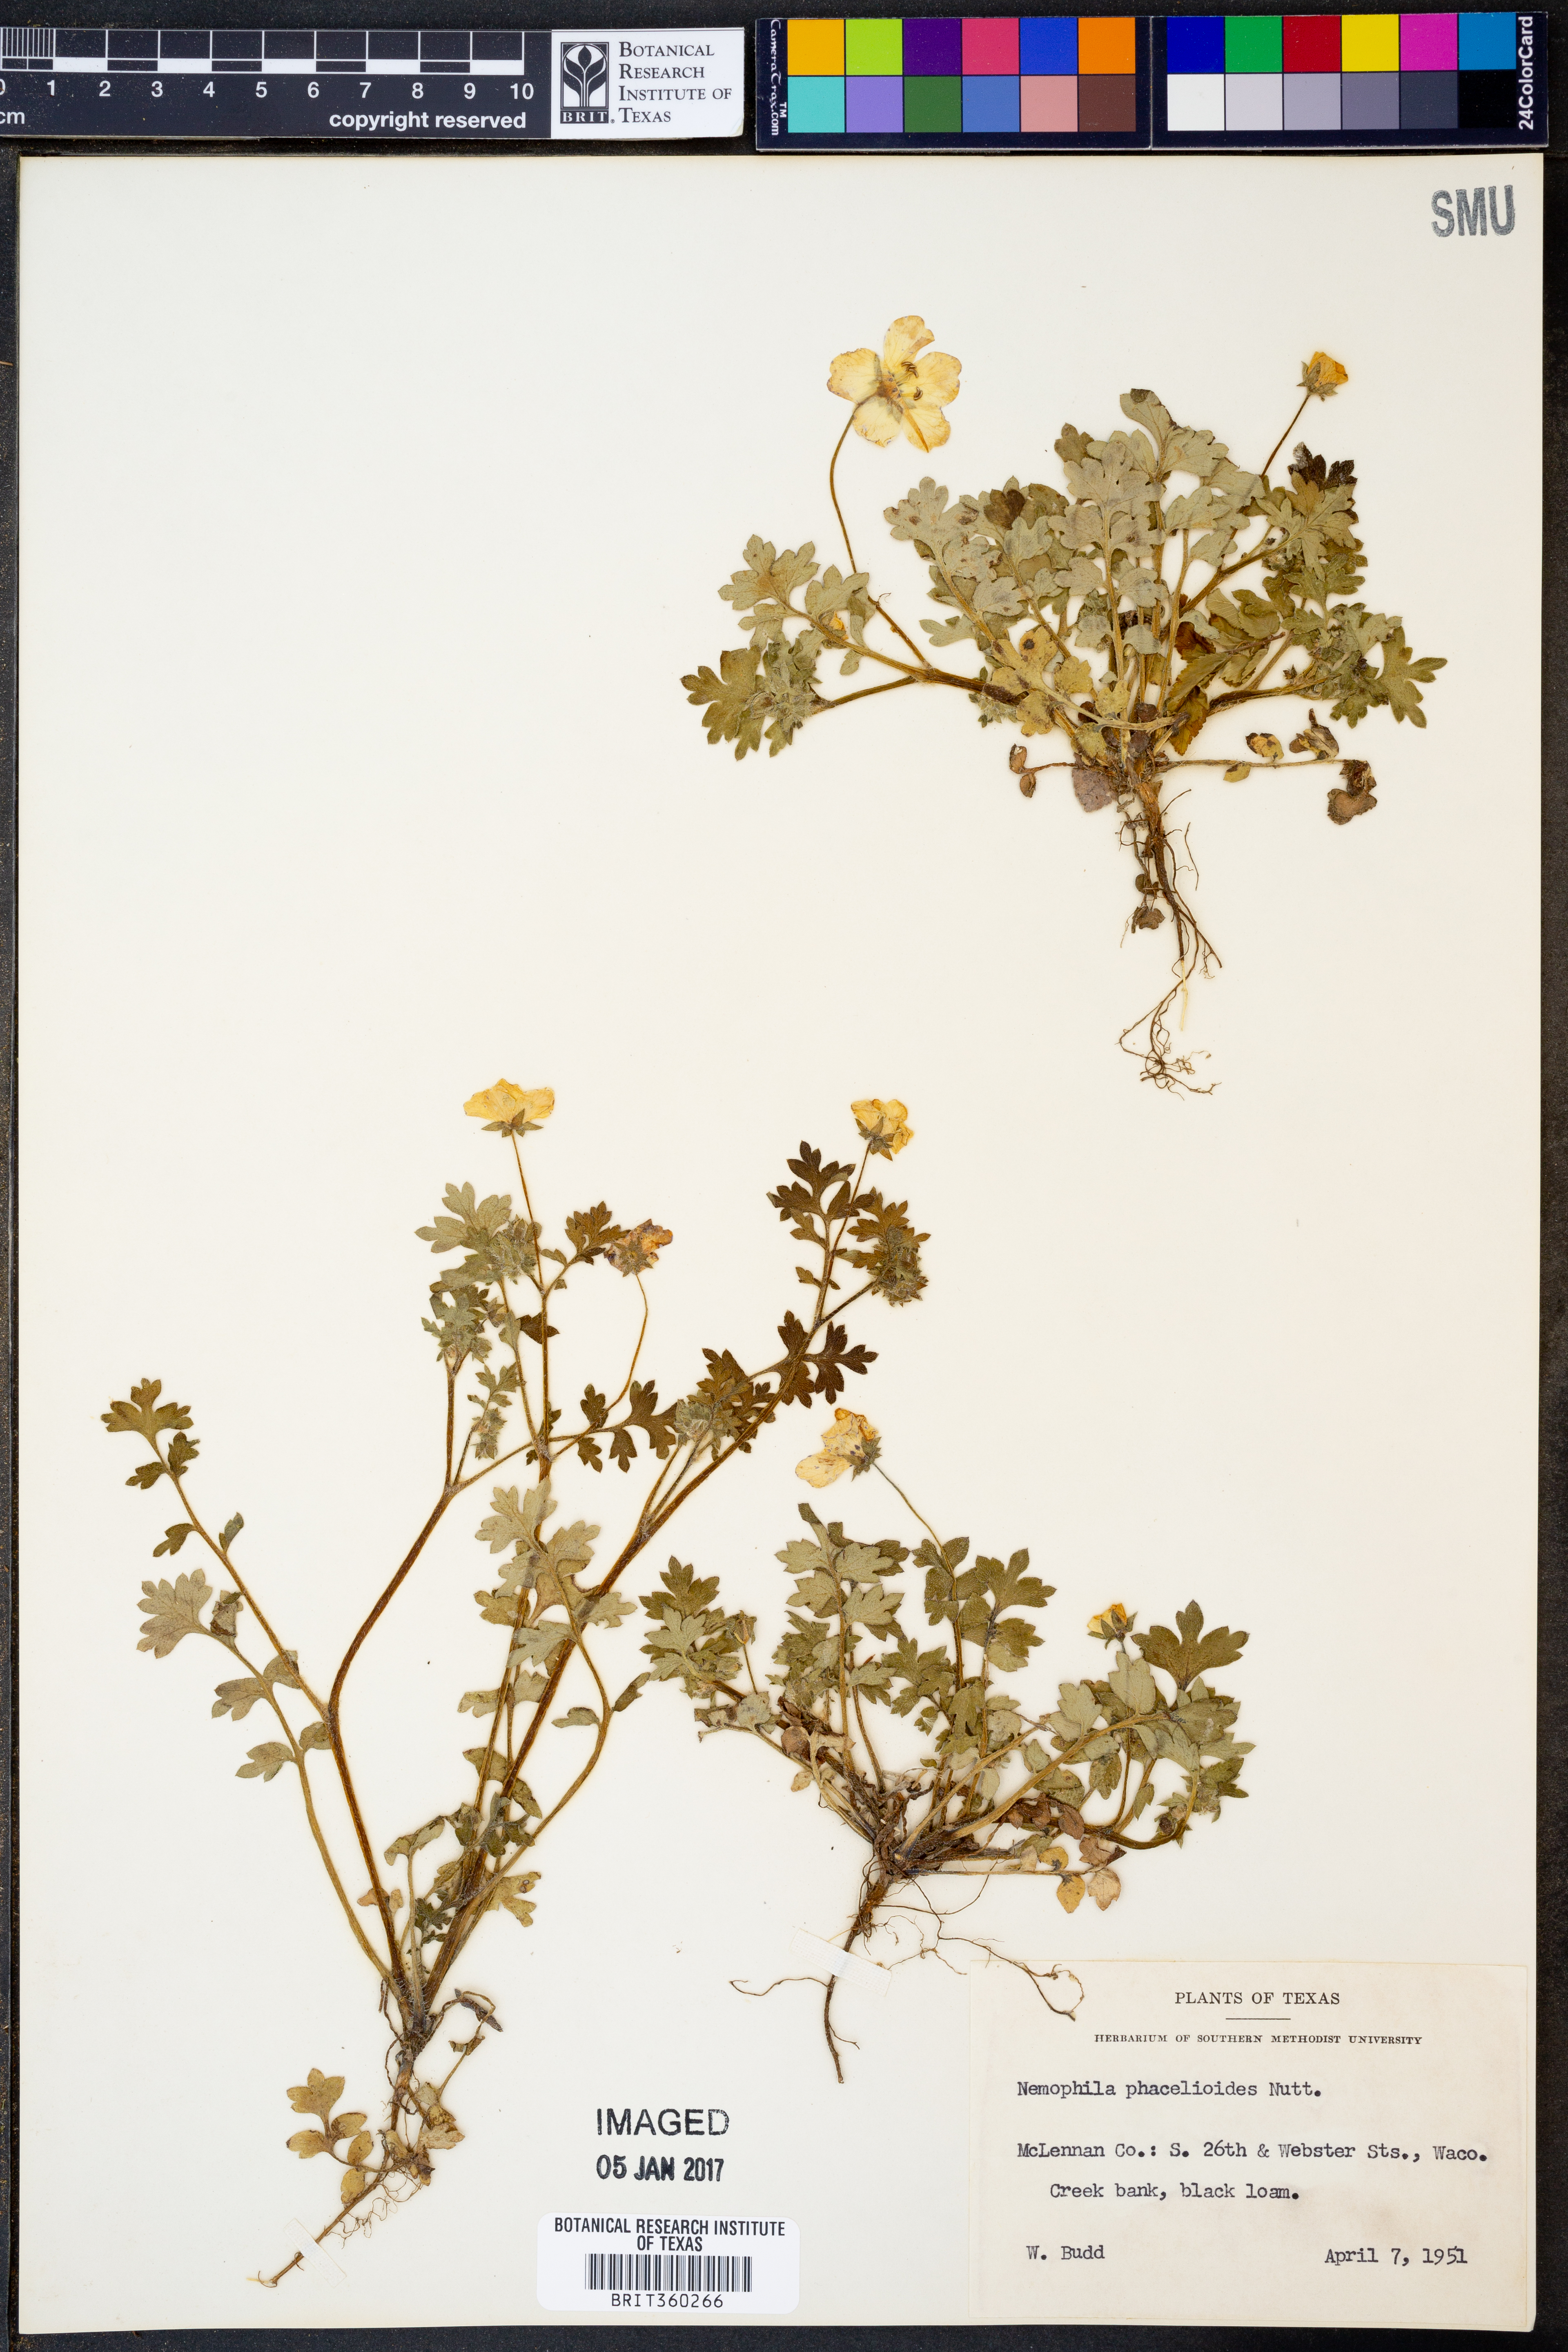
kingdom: Plantae
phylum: Tracheophyta
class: Magnoliopsida
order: Boraginales
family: Hydrophyllaceae
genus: Nemophila
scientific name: Nemophila phacelioides
